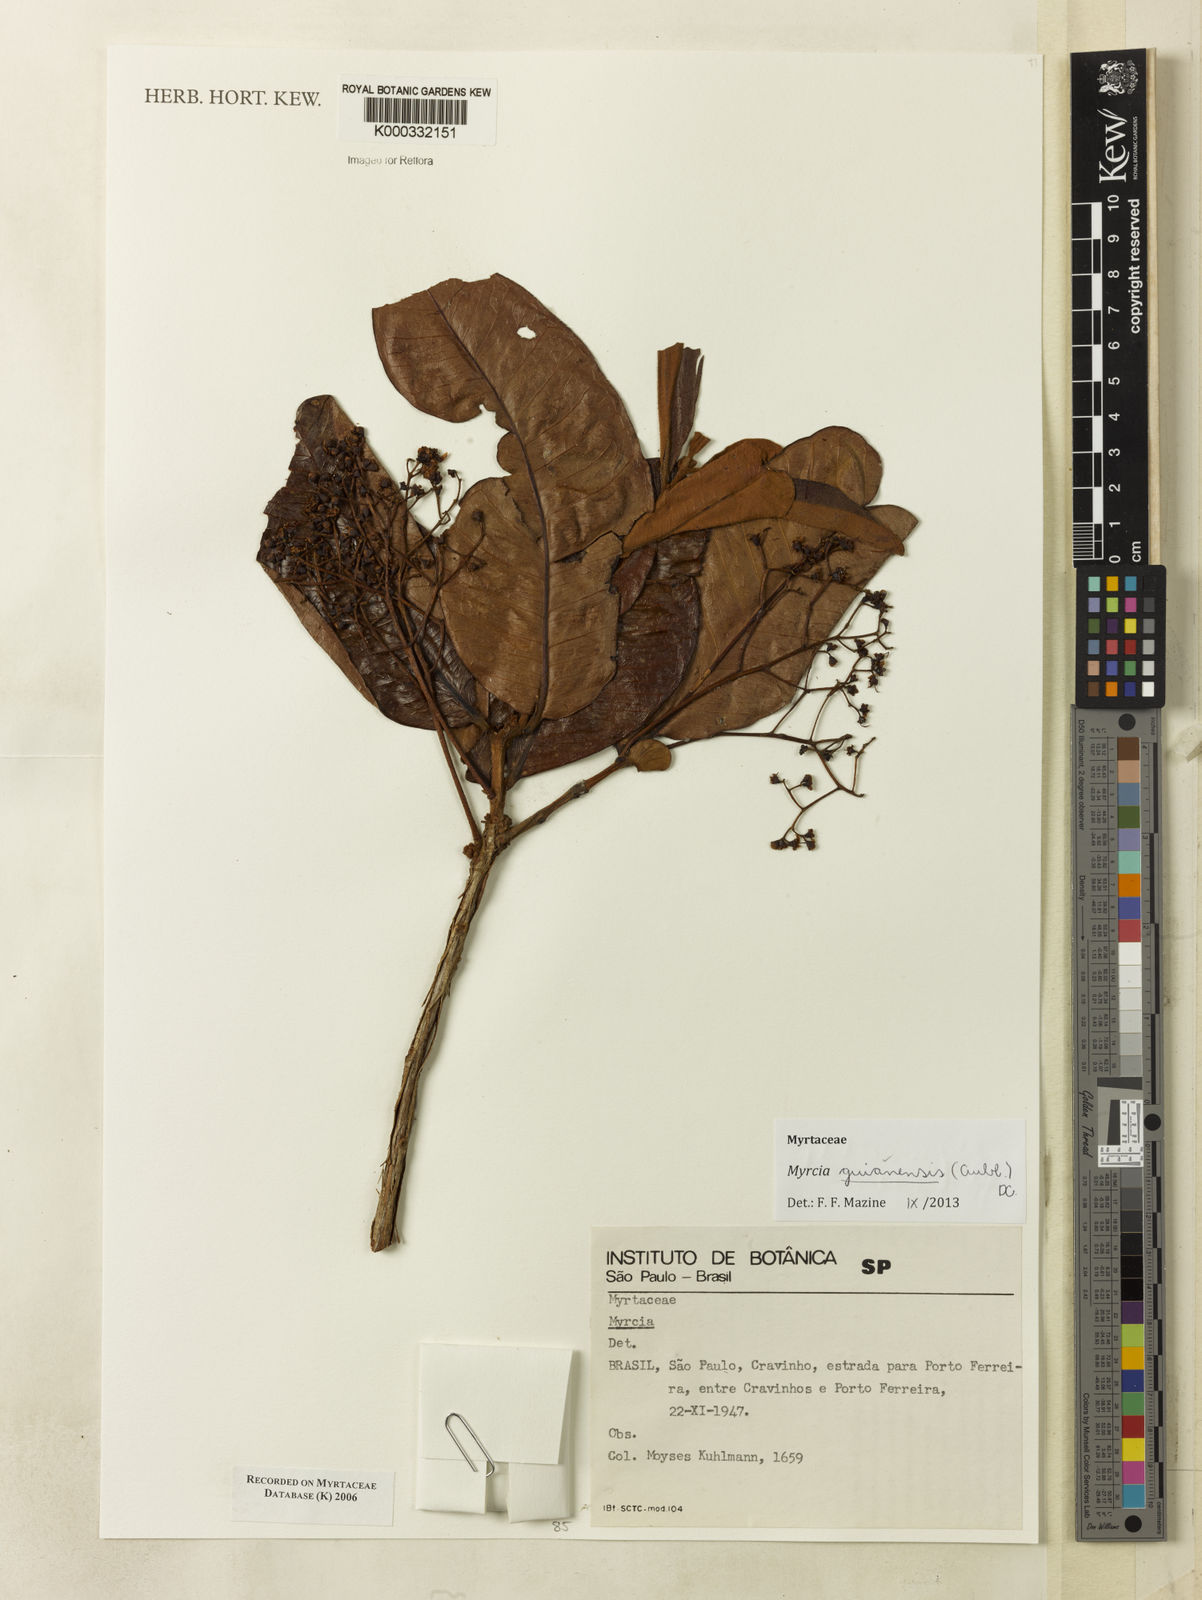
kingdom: Plantae
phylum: Tracheophyta
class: Magnoliopsida
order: Myrtales
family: Myrtaceae
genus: Myrcia
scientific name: Myrcia
